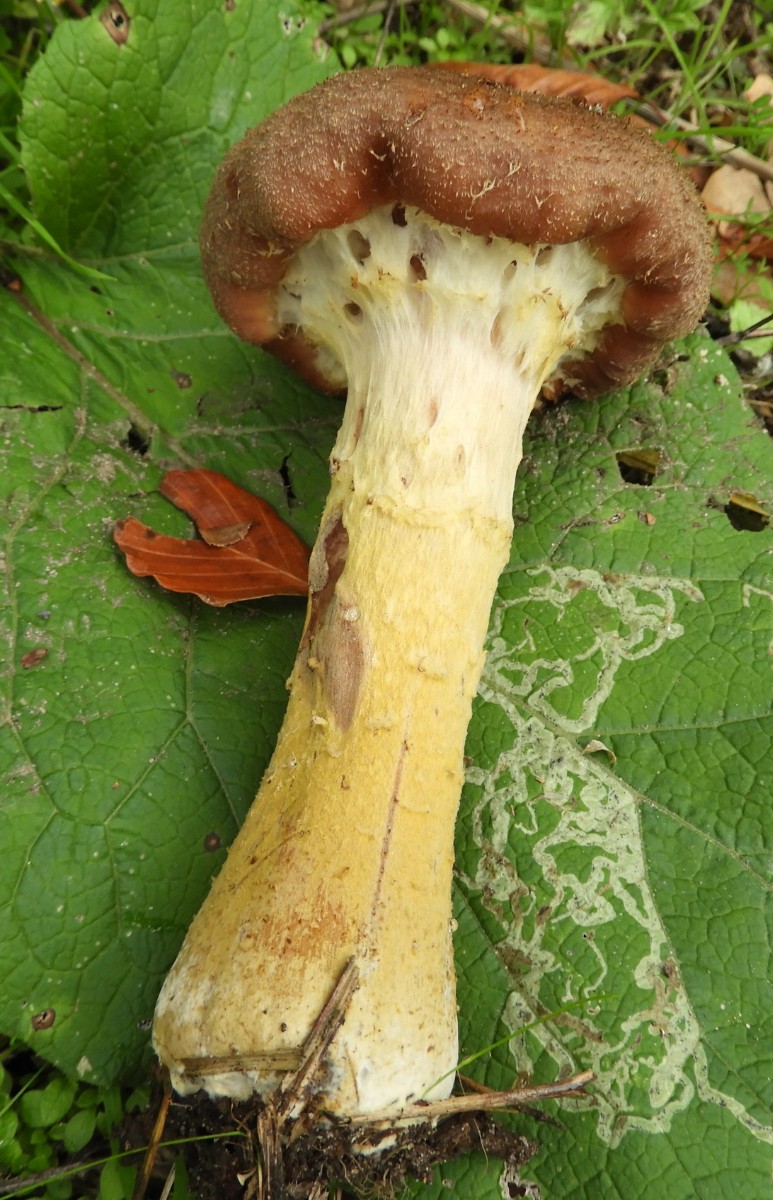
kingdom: Fungi
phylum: Basidiomycota
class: Agaricomycetes
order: Agaricales
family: Physalacriaceae
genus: Armillaria
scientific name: Armillaria lutea
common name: køllestokket honningsvamp
